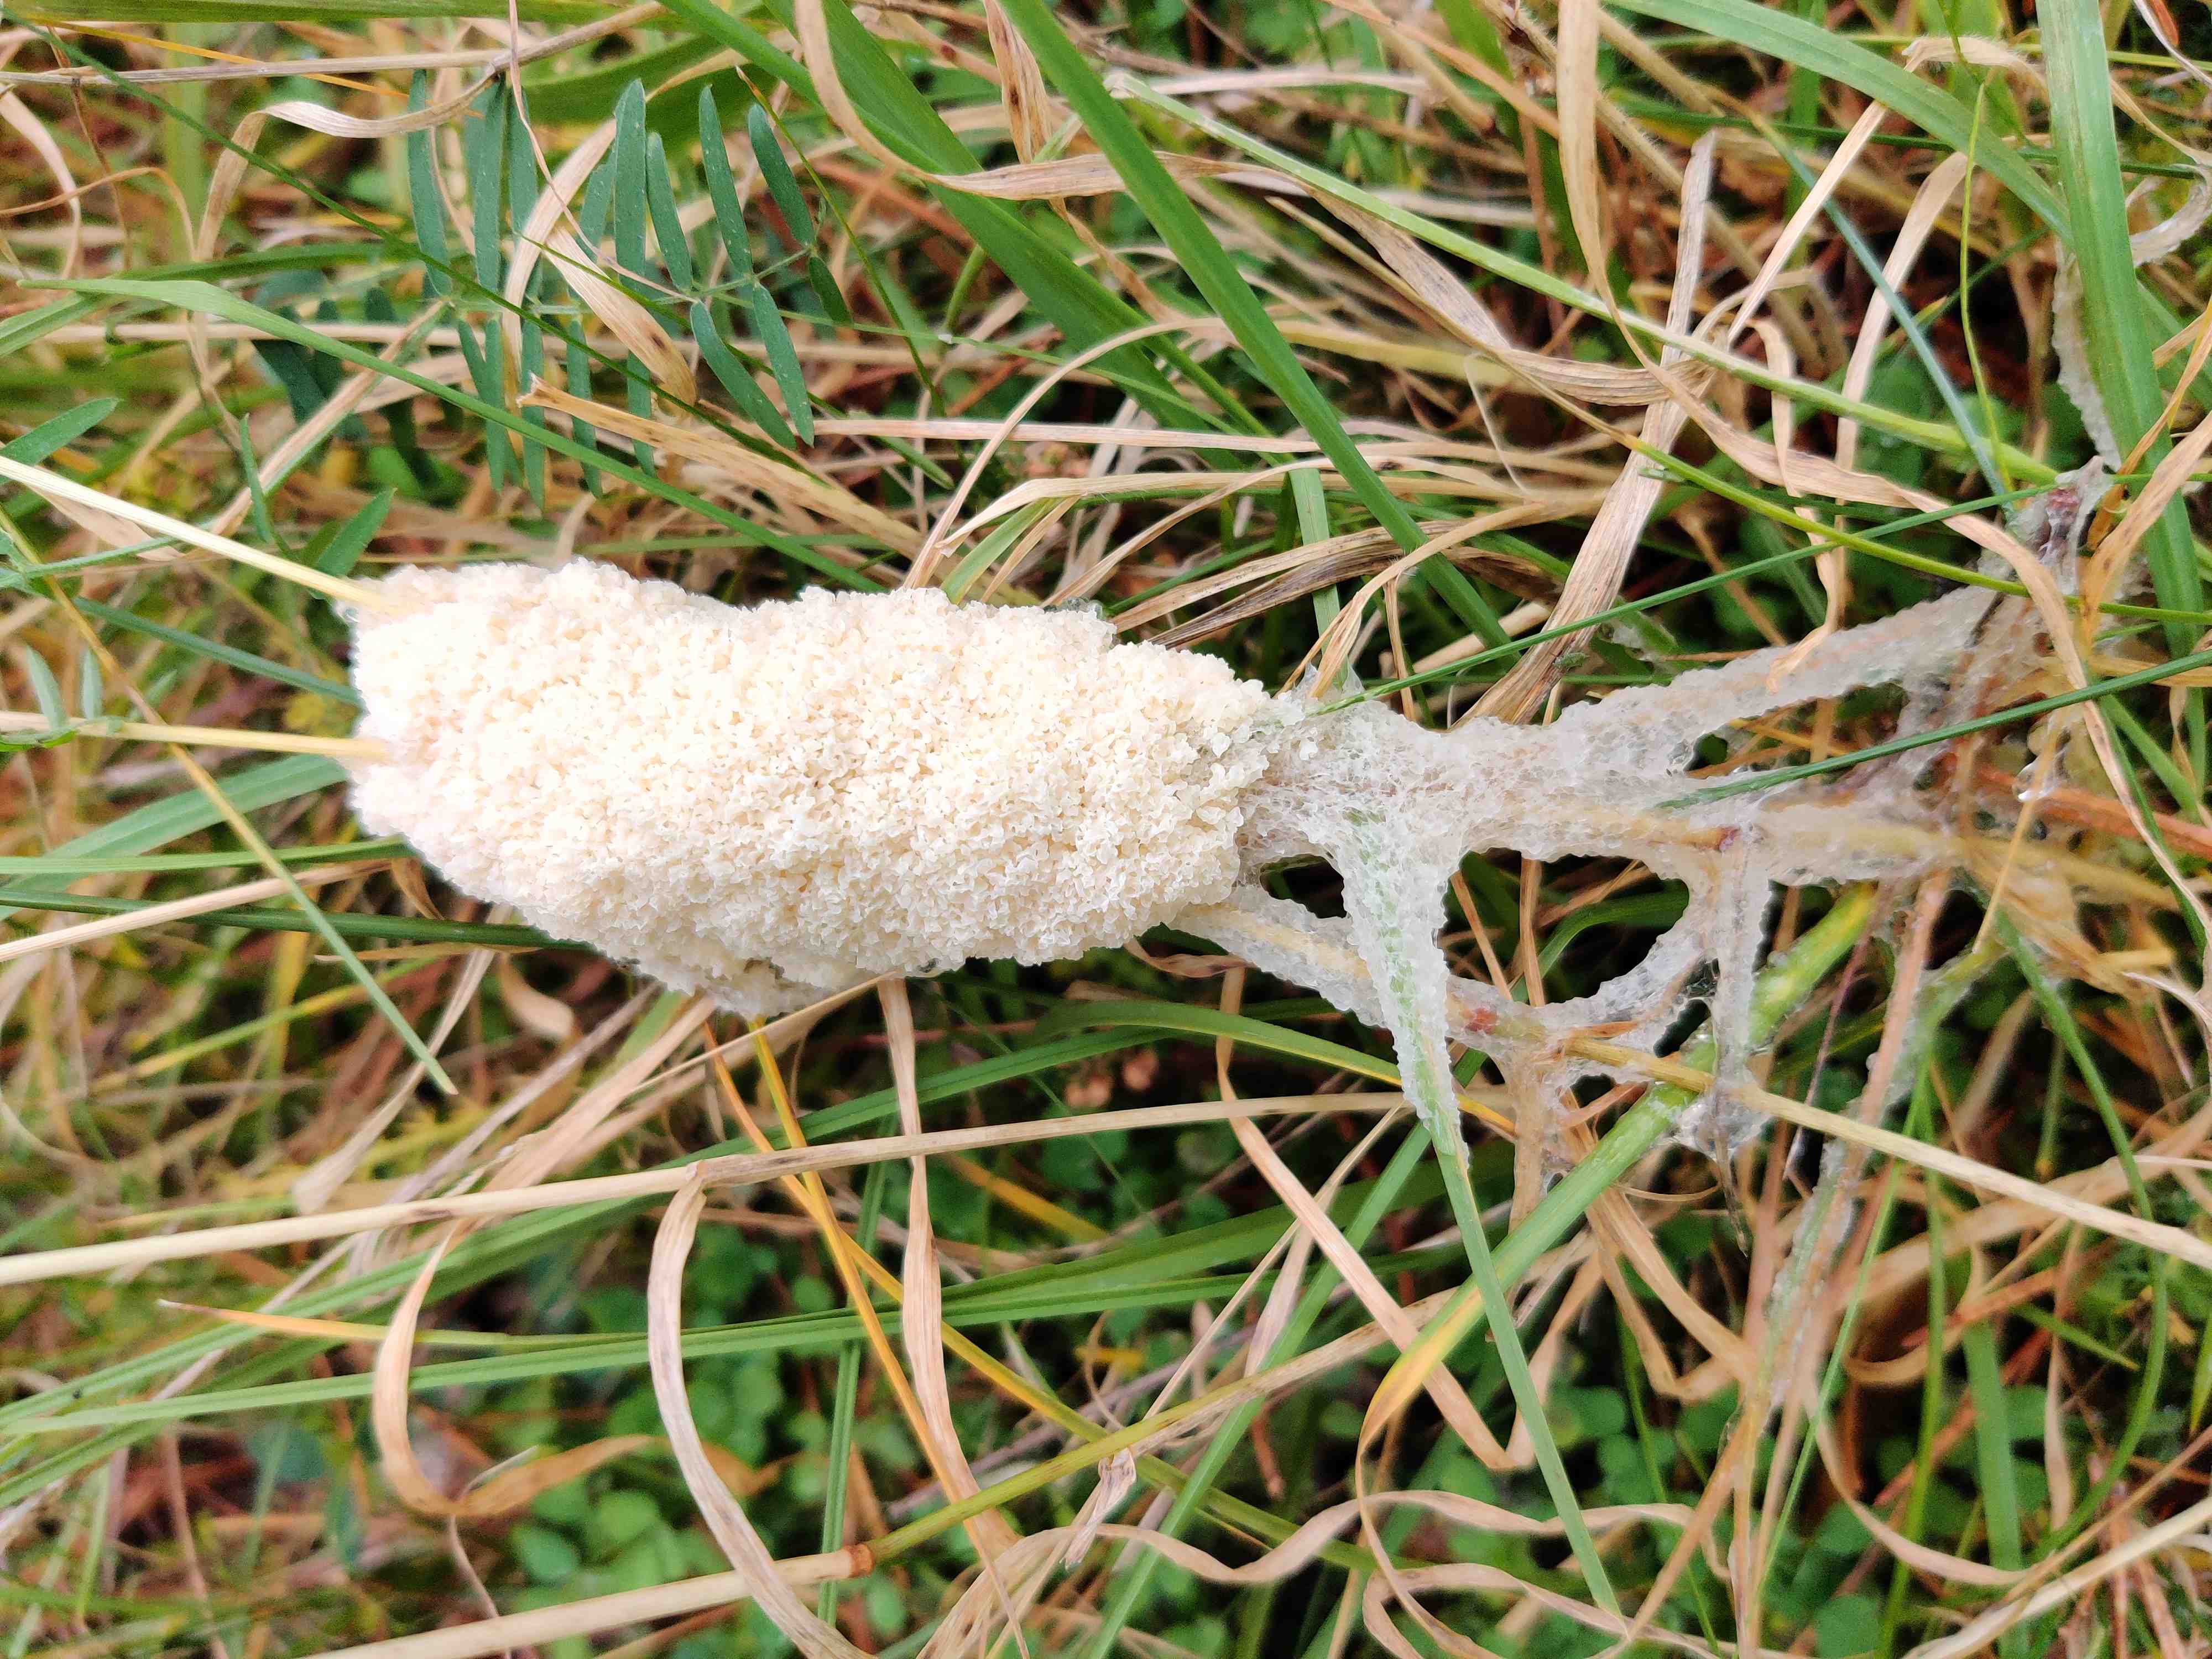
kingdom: Protozoa
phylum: Mycetozoa
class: Myxomycetes
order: Physarales
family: Physaraceae
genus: Didymium
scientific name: Didymium
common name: urteskum
